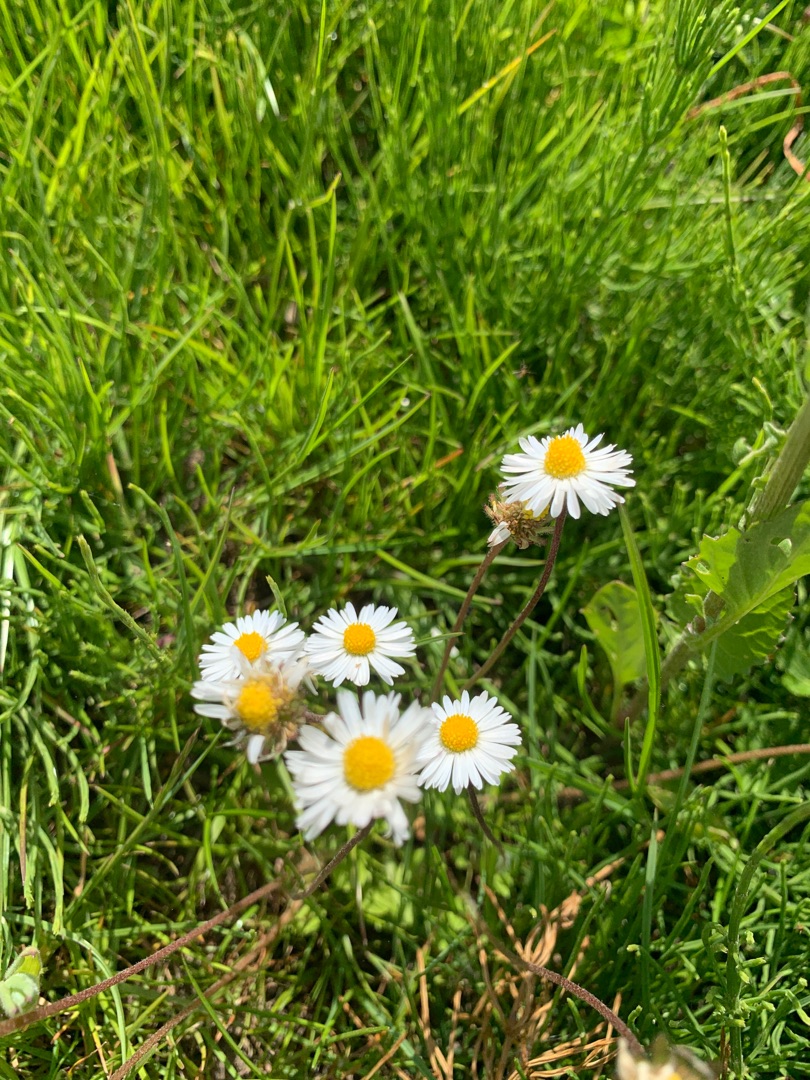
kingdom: Plantae
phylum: Tracheophyta
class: Magnoliopsida
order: Asterales
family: Asteraceae
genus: Bellis
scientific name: Bellis perennis
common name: Tusindfryd
